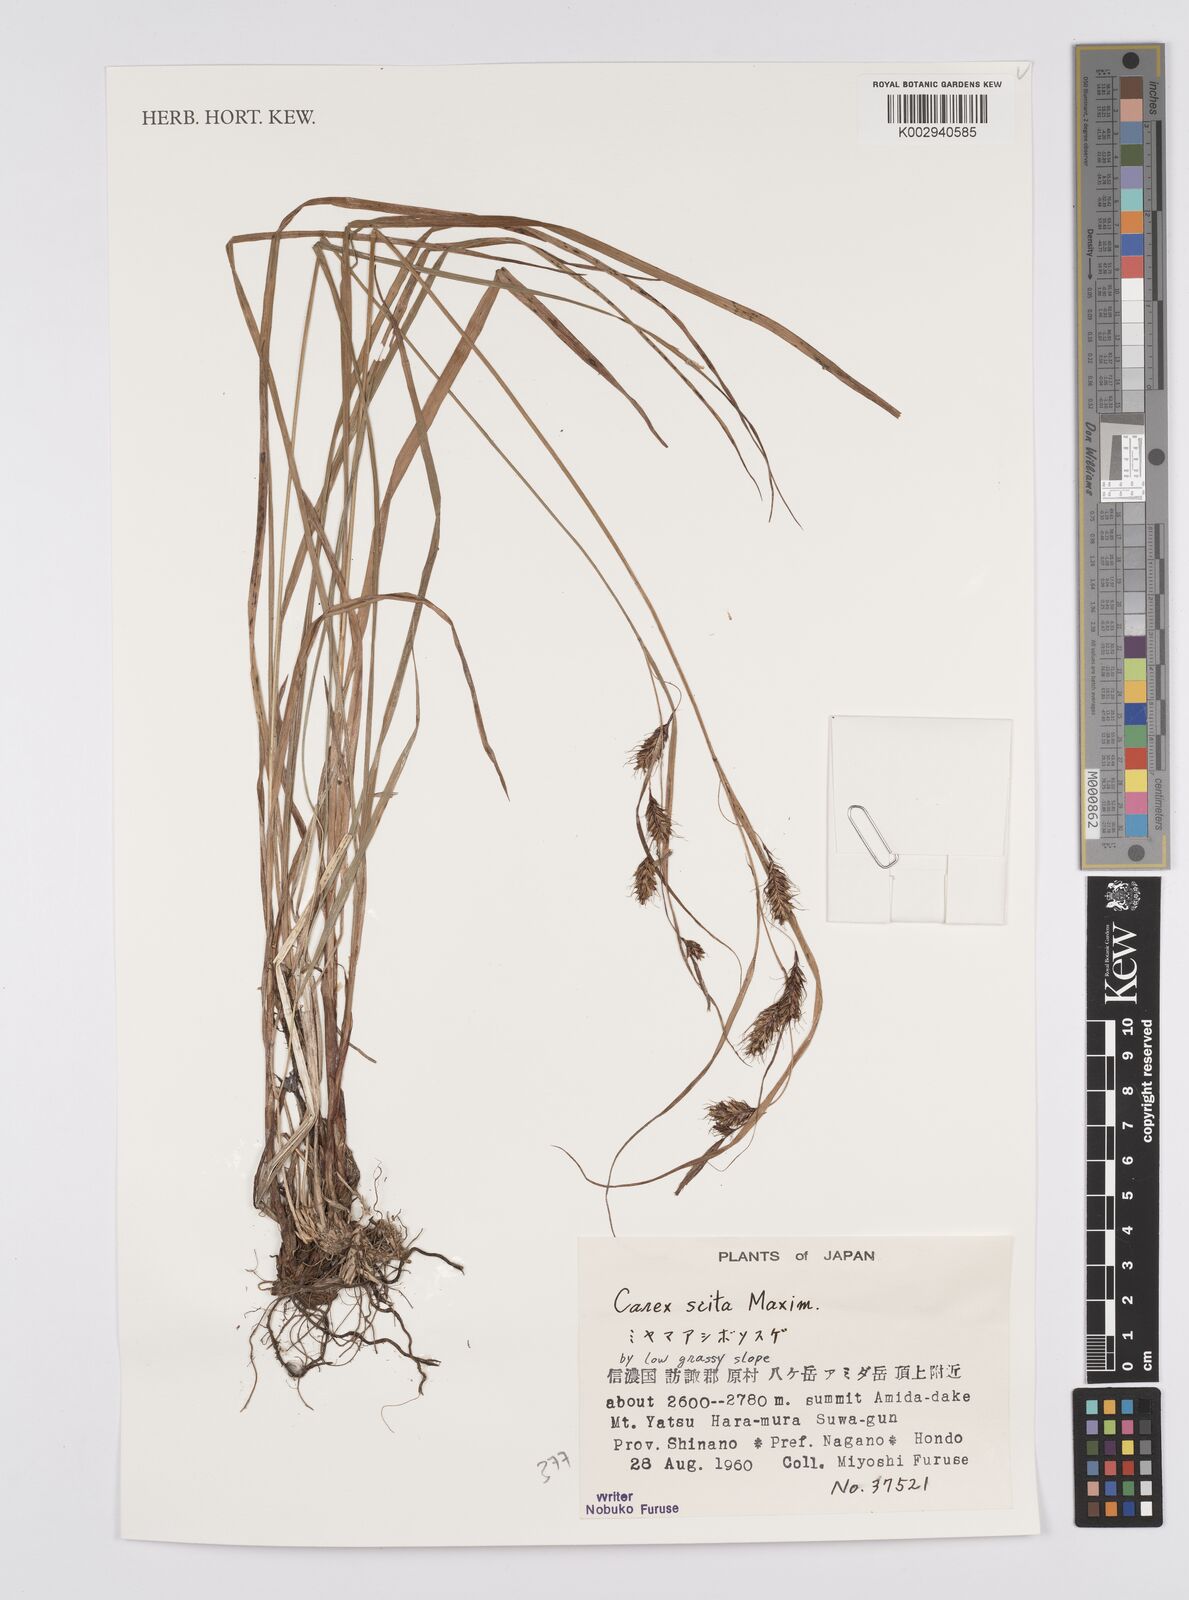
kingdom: Plantae
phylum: Tracheophyta
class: Liliopsida
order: Poales
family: Cyperaceae
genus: Carex
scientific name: Carex scita
